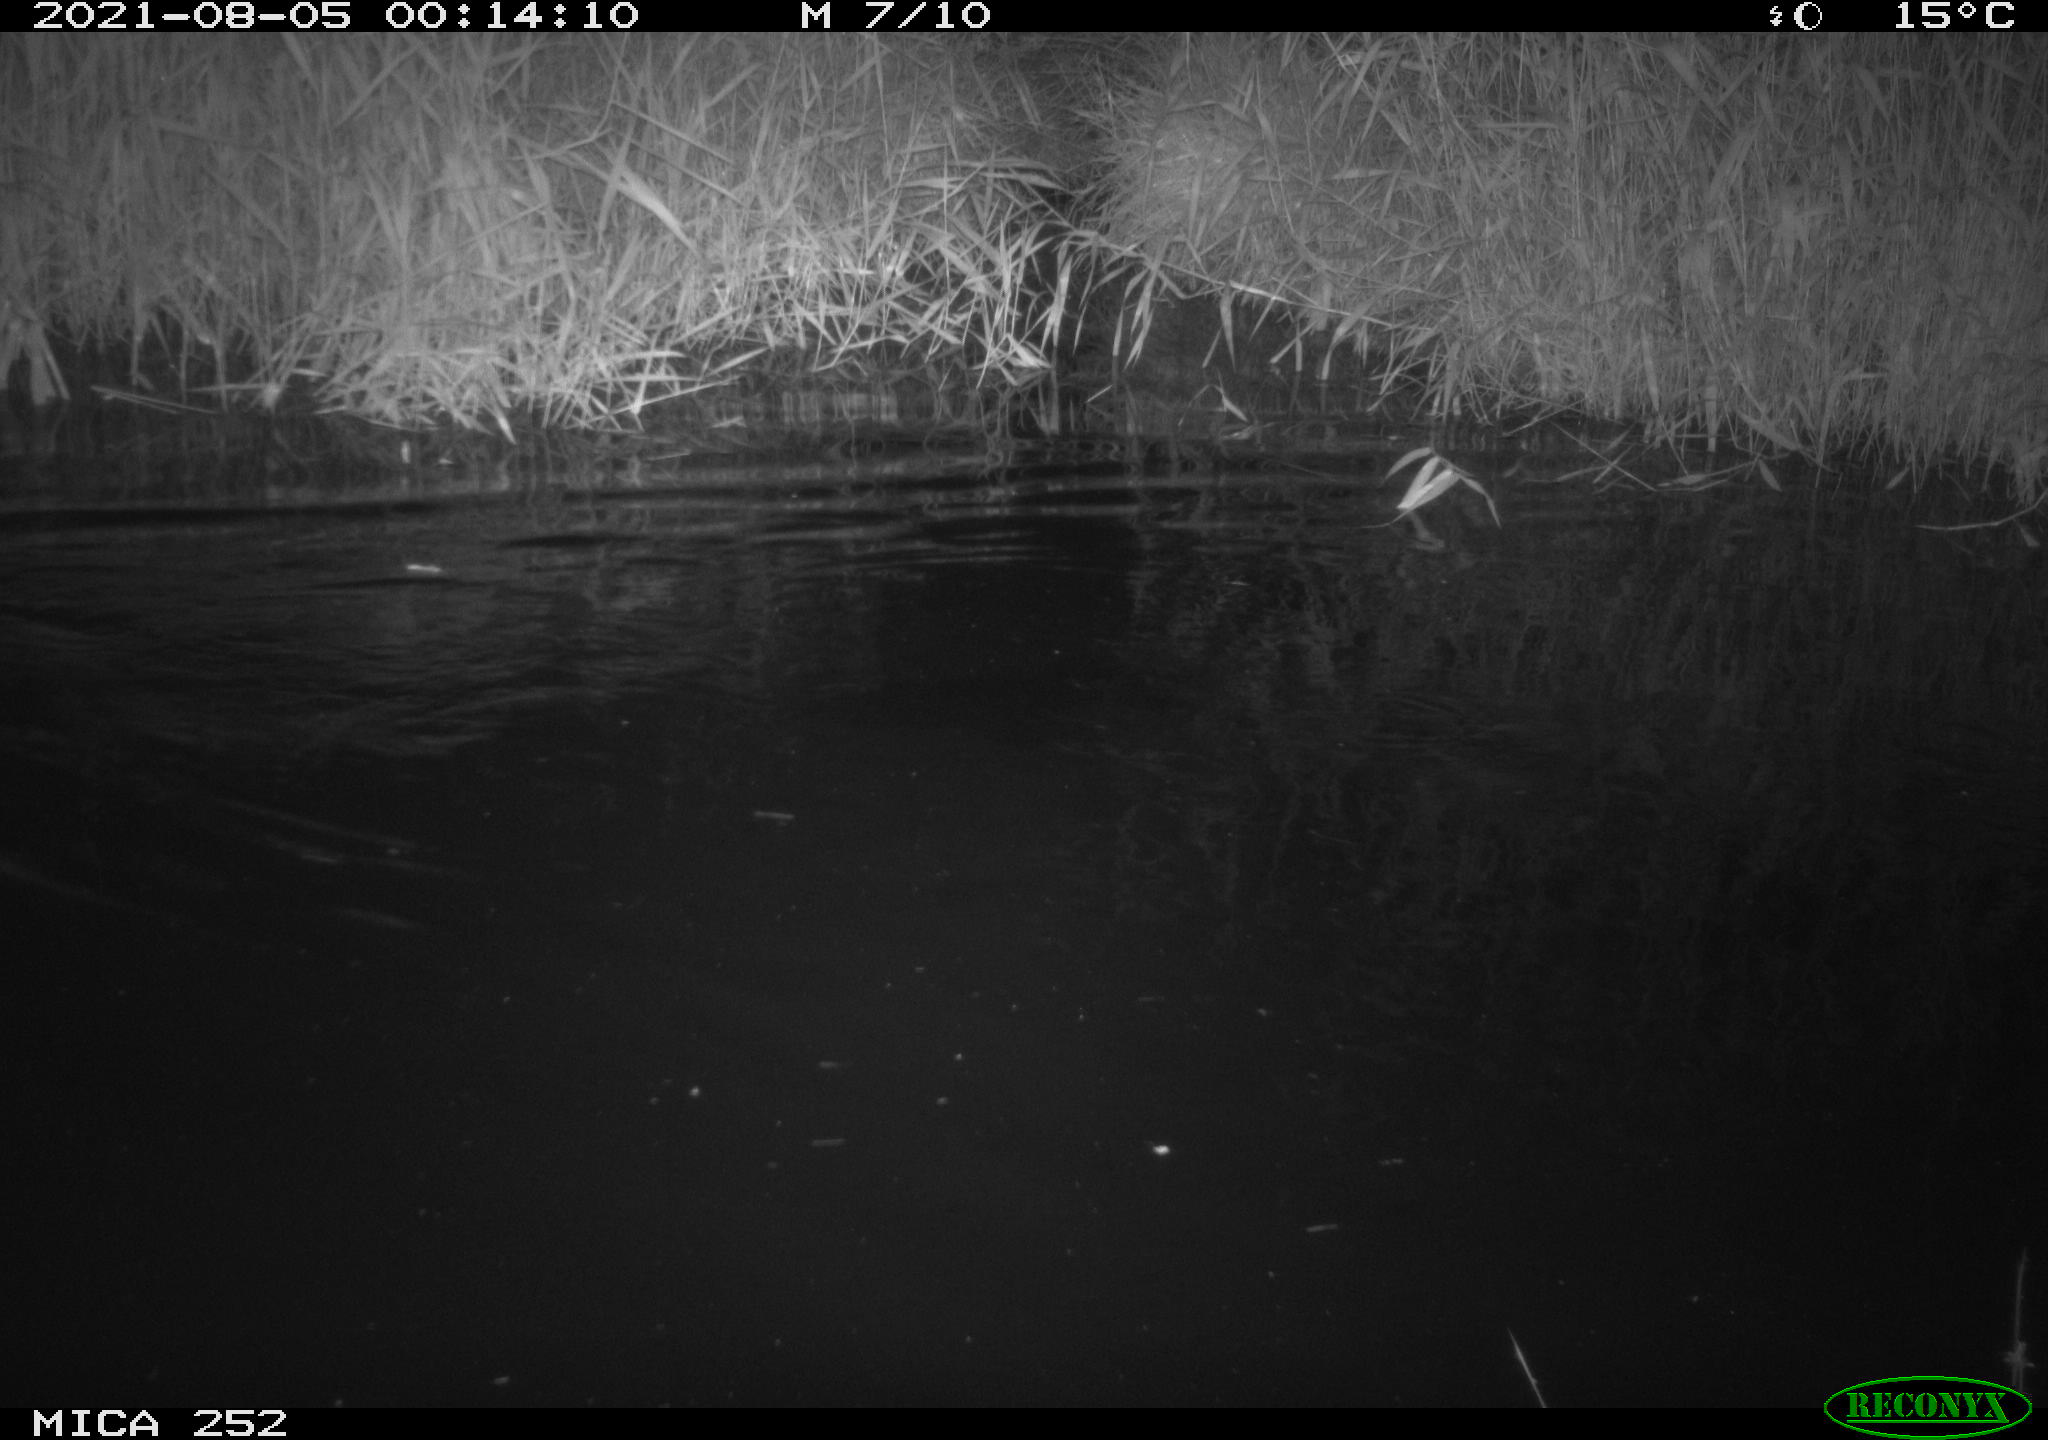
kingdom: Animalia
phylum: Chordata
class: Mammalia
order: Rodentia
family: Castoridae
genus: Castor
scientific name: Castor fiber
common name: Eurasian beaver
